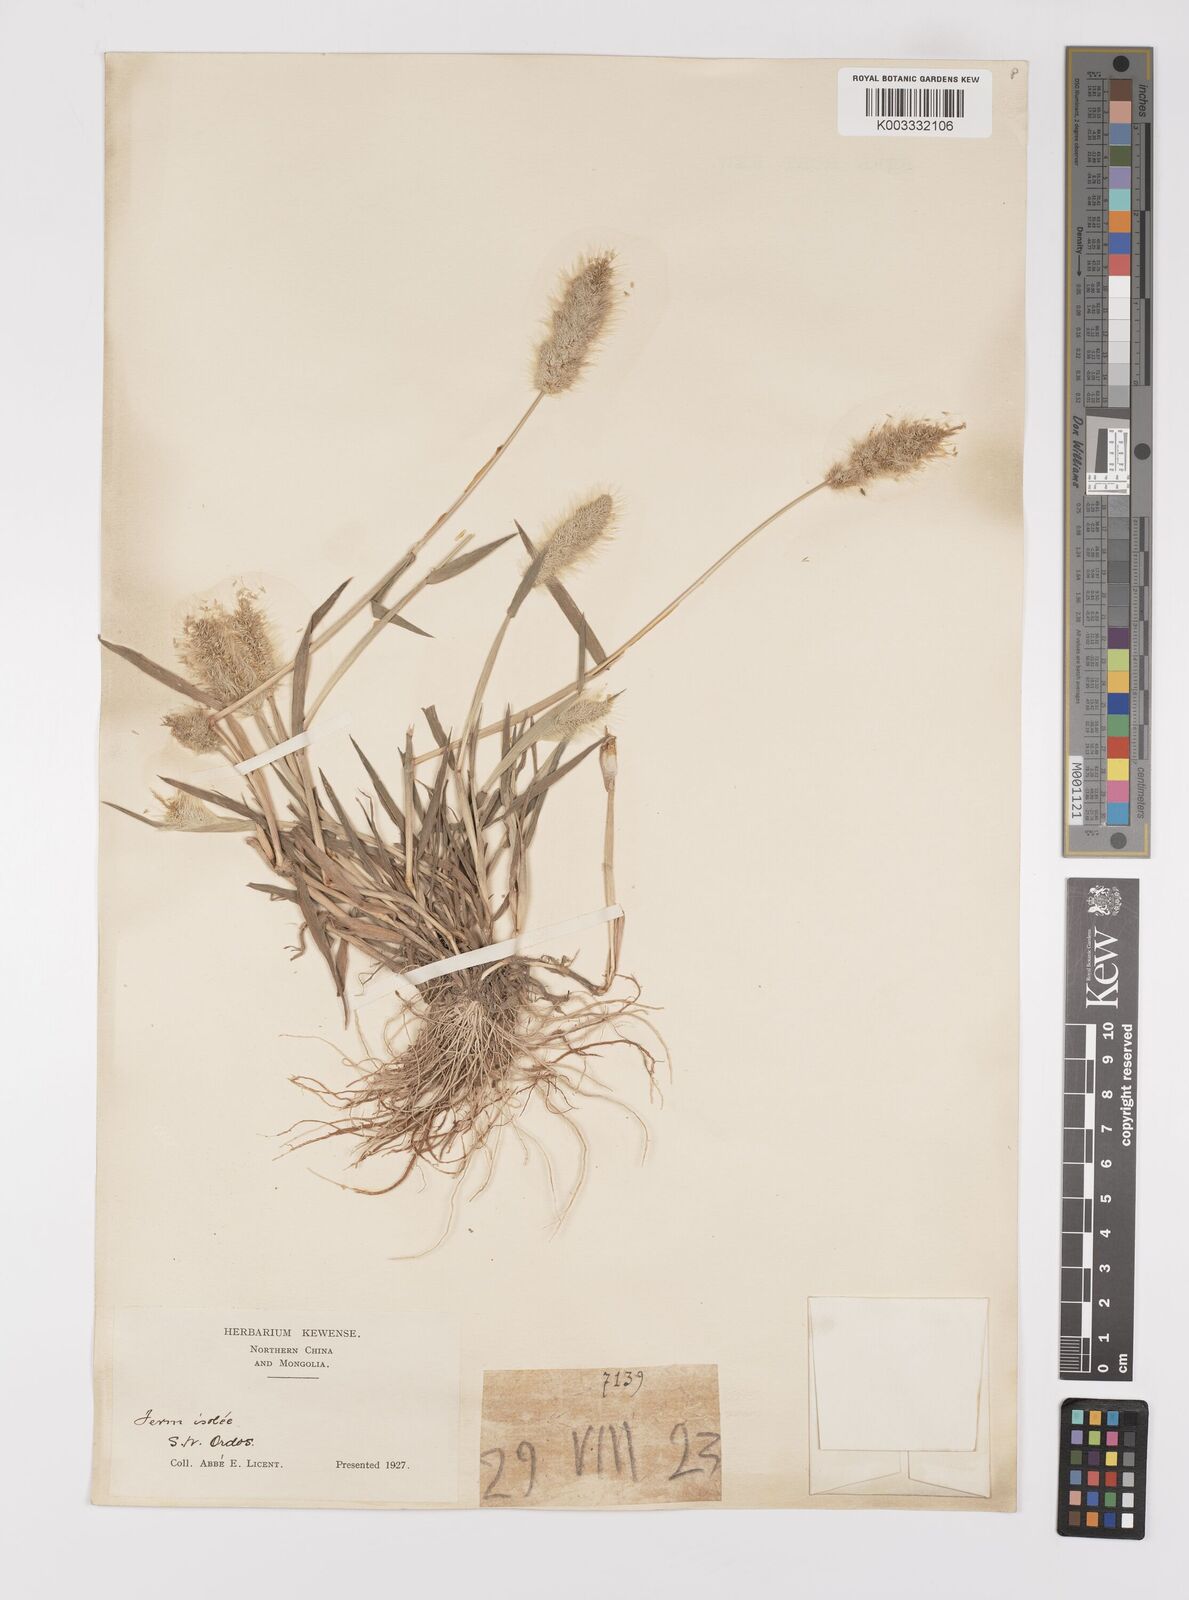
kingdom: Plantae
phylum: Tracheophyta
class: Liliopsida
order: Poales
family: Poaceae
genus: Polypogon
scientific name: Polypogon monspeliensis
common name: Annual rabbitsfoot grass
